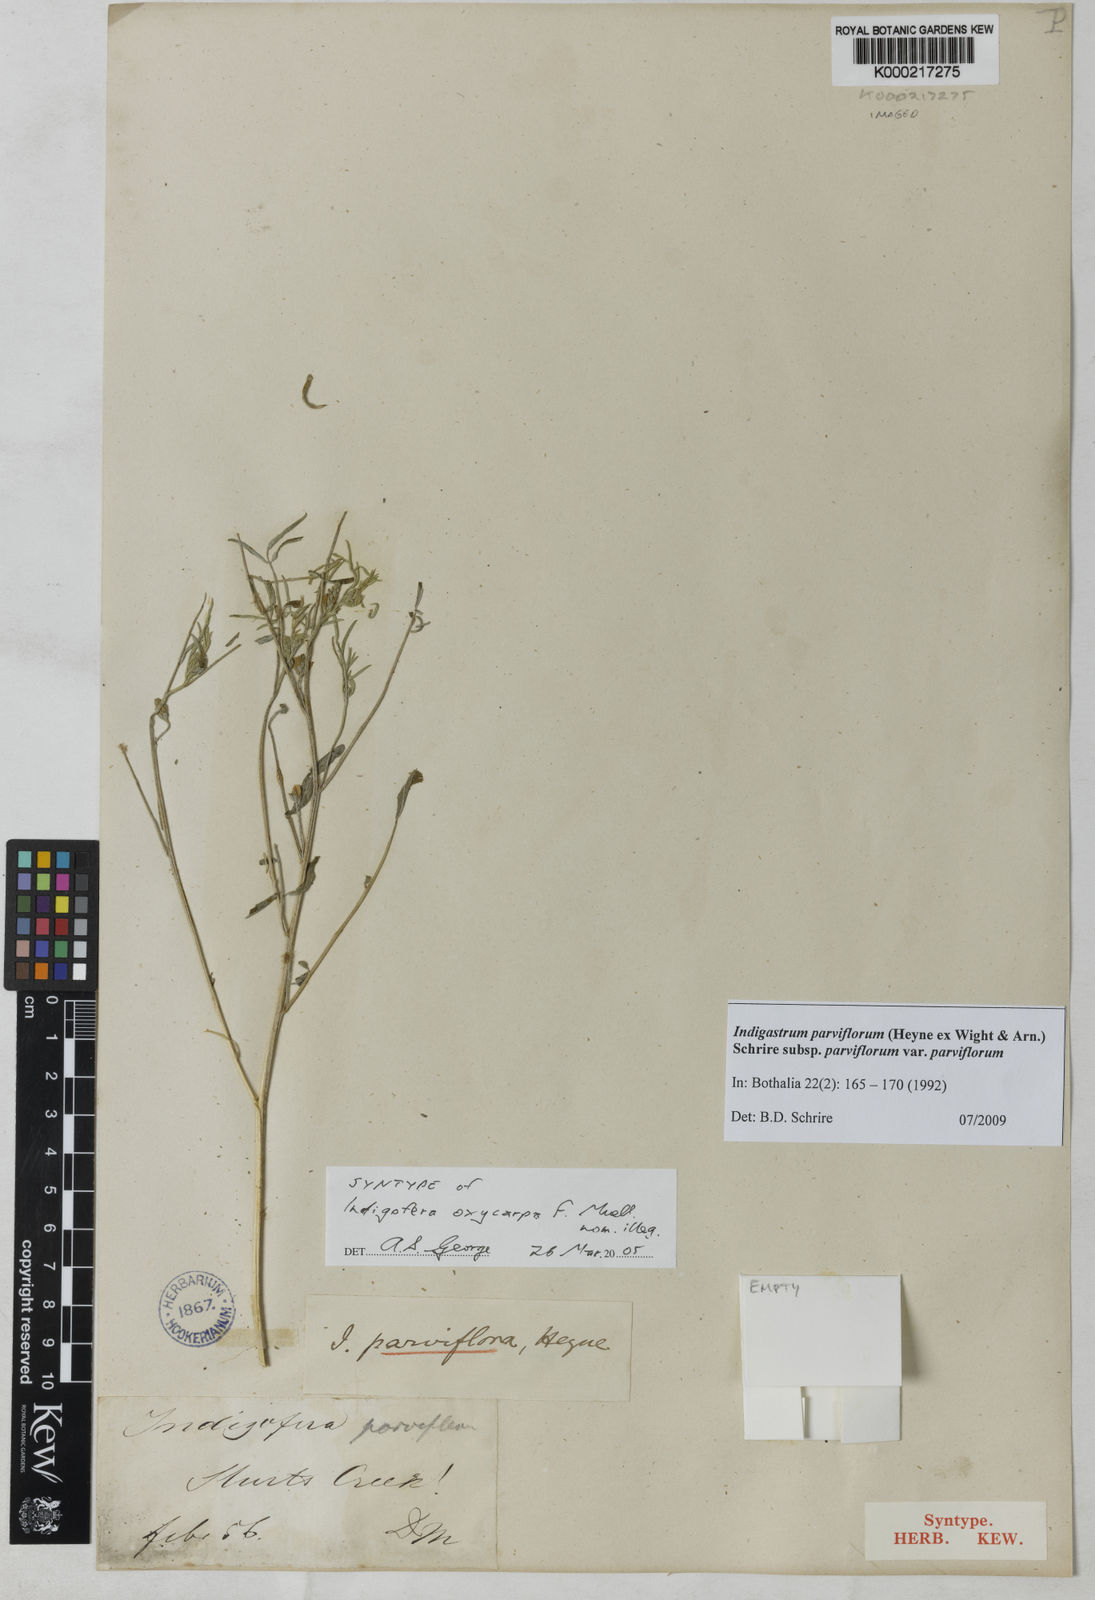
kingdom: Plantae
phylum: Tracheophyta
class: Magnoliopsida
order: Fabales
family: Fabaceae
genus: Indigastrum
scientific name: Indigastrum parviflorum
